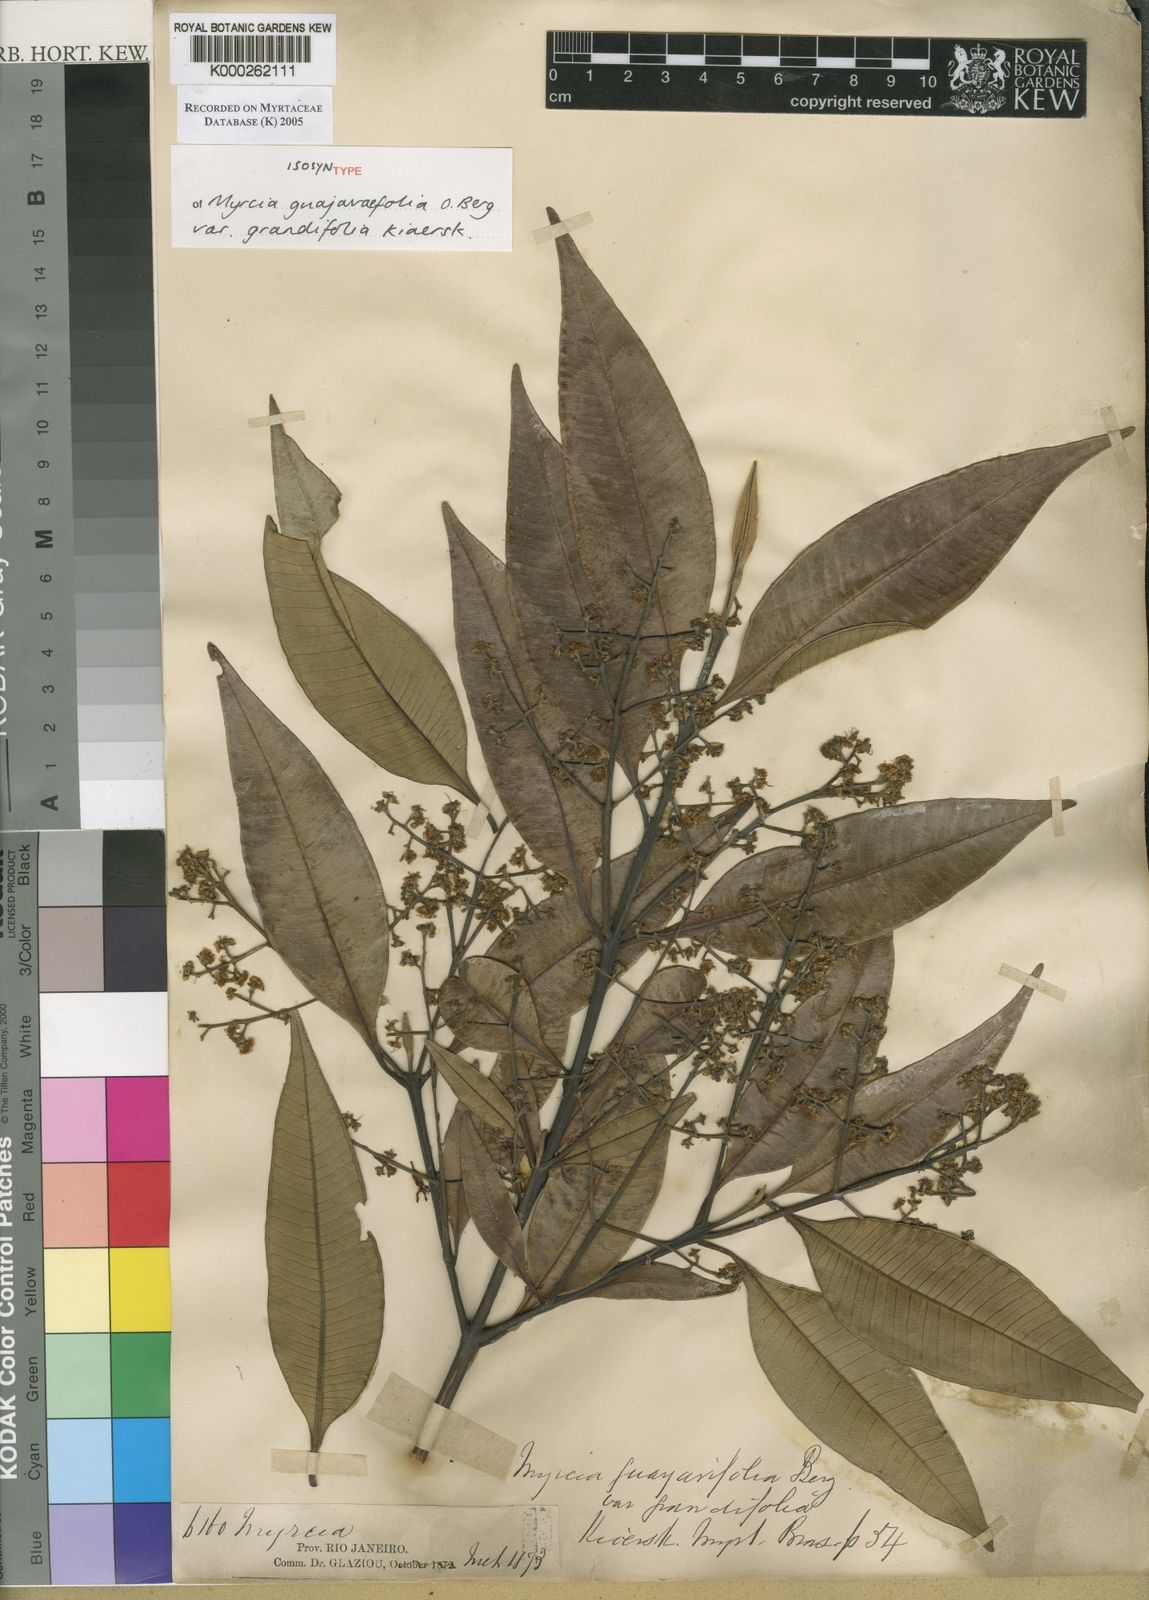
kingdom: Plantae
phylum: Tracheophyta
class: Magnoliopsida
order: Myrtales
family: Myrtaceae
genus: Myrcia
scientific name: Myrcia splendens
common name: Surinam cherry
